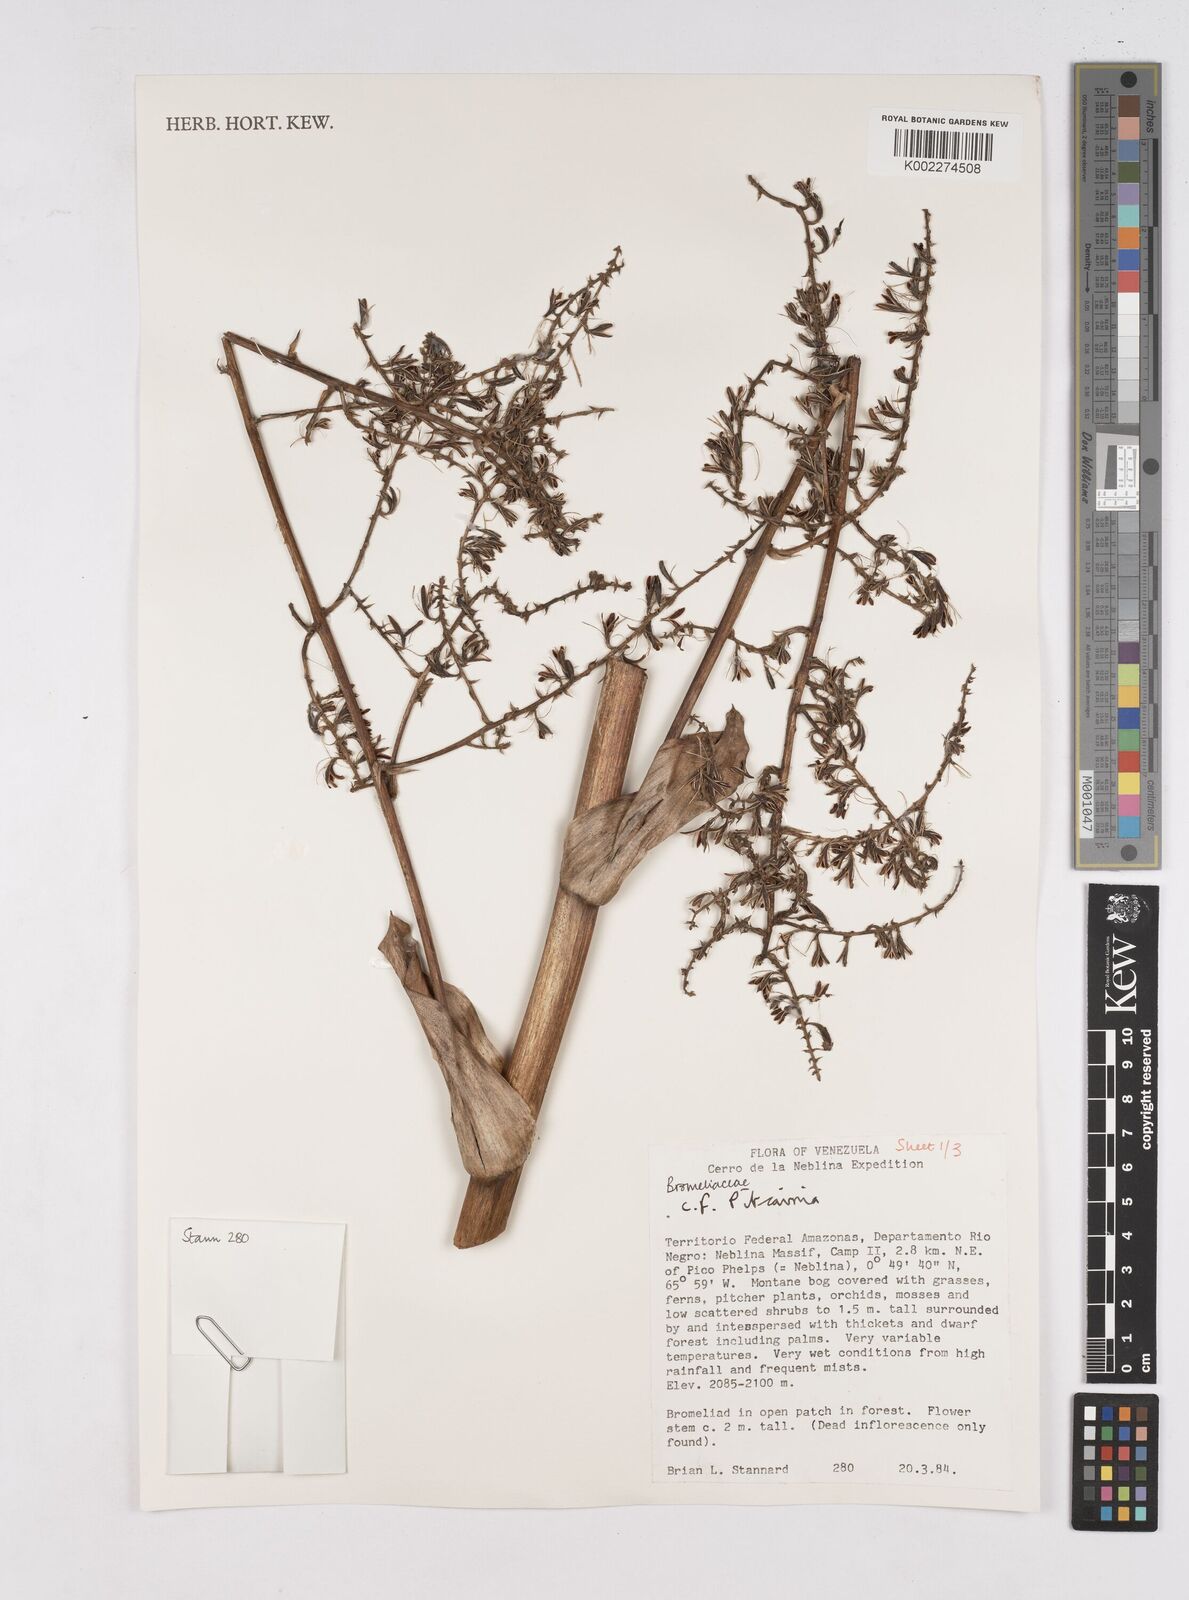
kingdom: Plantae
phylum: Tracheophyta
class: Liliopsida
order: Poales
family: Bromeliaceae
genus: Pitcairnia
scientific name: Pitcairnia
